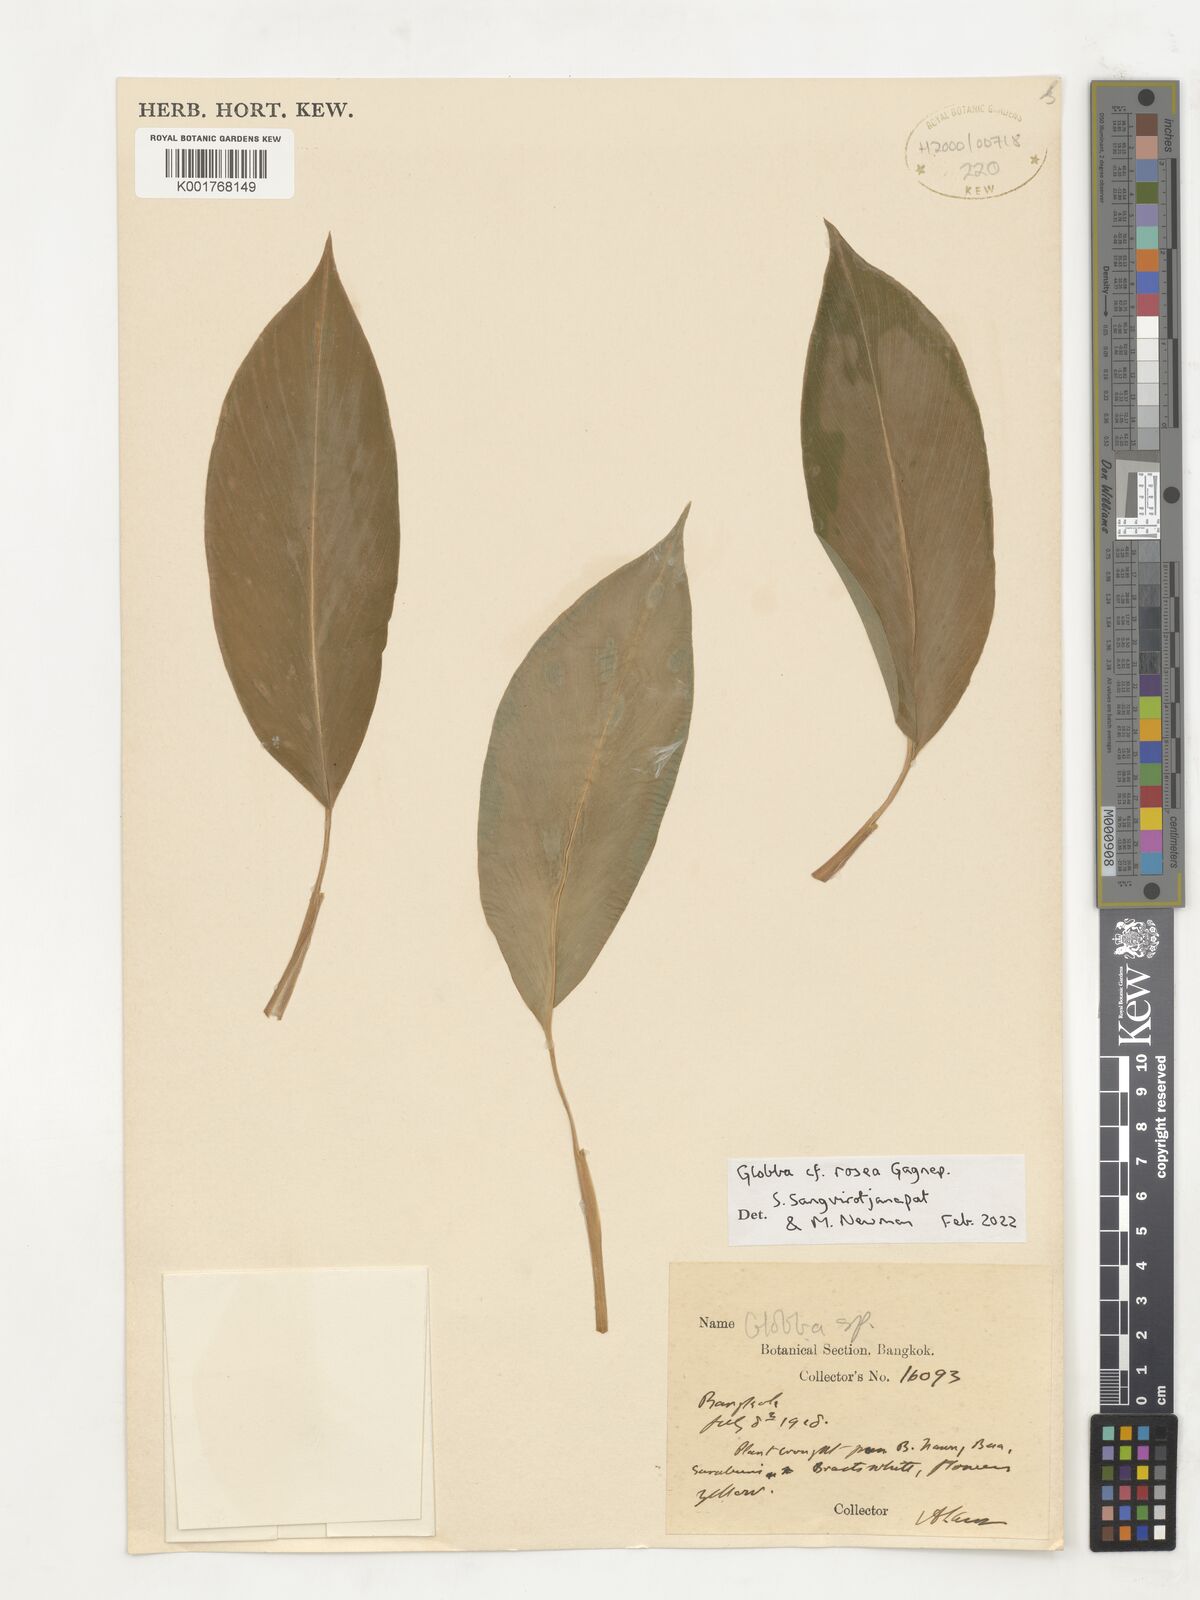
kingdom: Plantae
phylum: Tracheophyta
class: Liliopsida
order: Zingiberales
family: Zingiberaceae
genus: Globba
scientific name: Globba rosea
